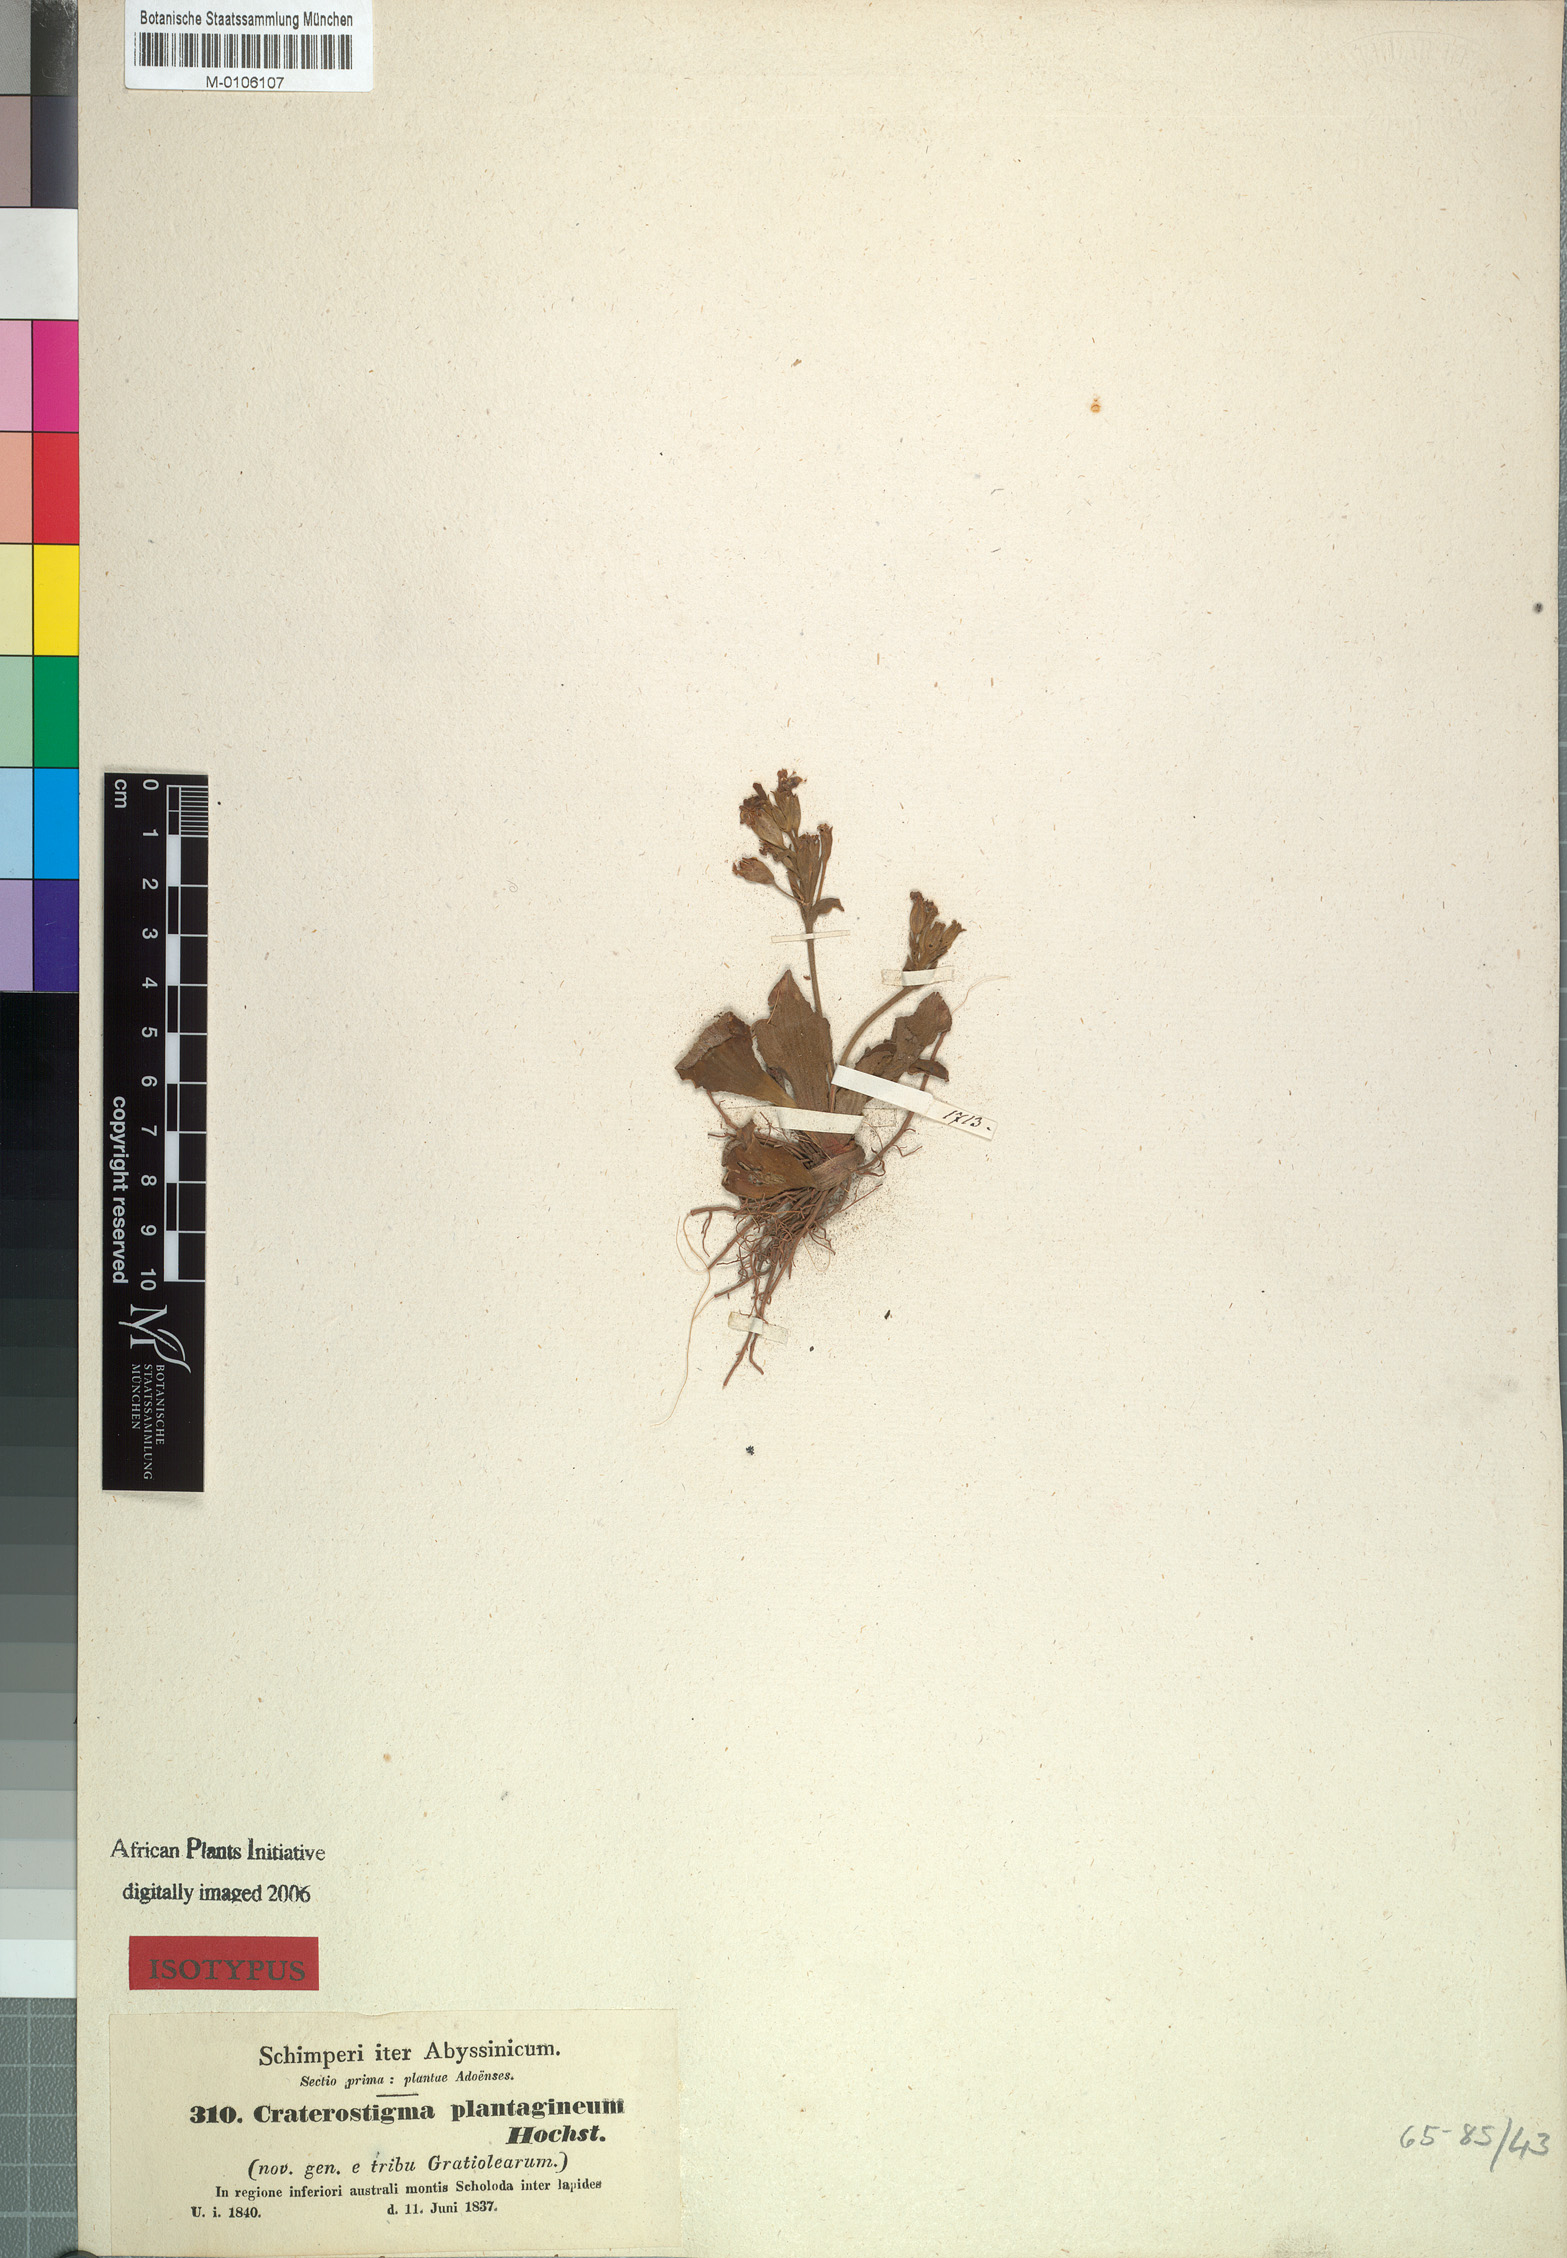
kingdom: Plantae
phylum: Tracheophyta
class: Magnoliopsida
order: Lamiales
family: Linderniaceae
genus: Craterostigma
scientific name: Craterostigma plantagineum
